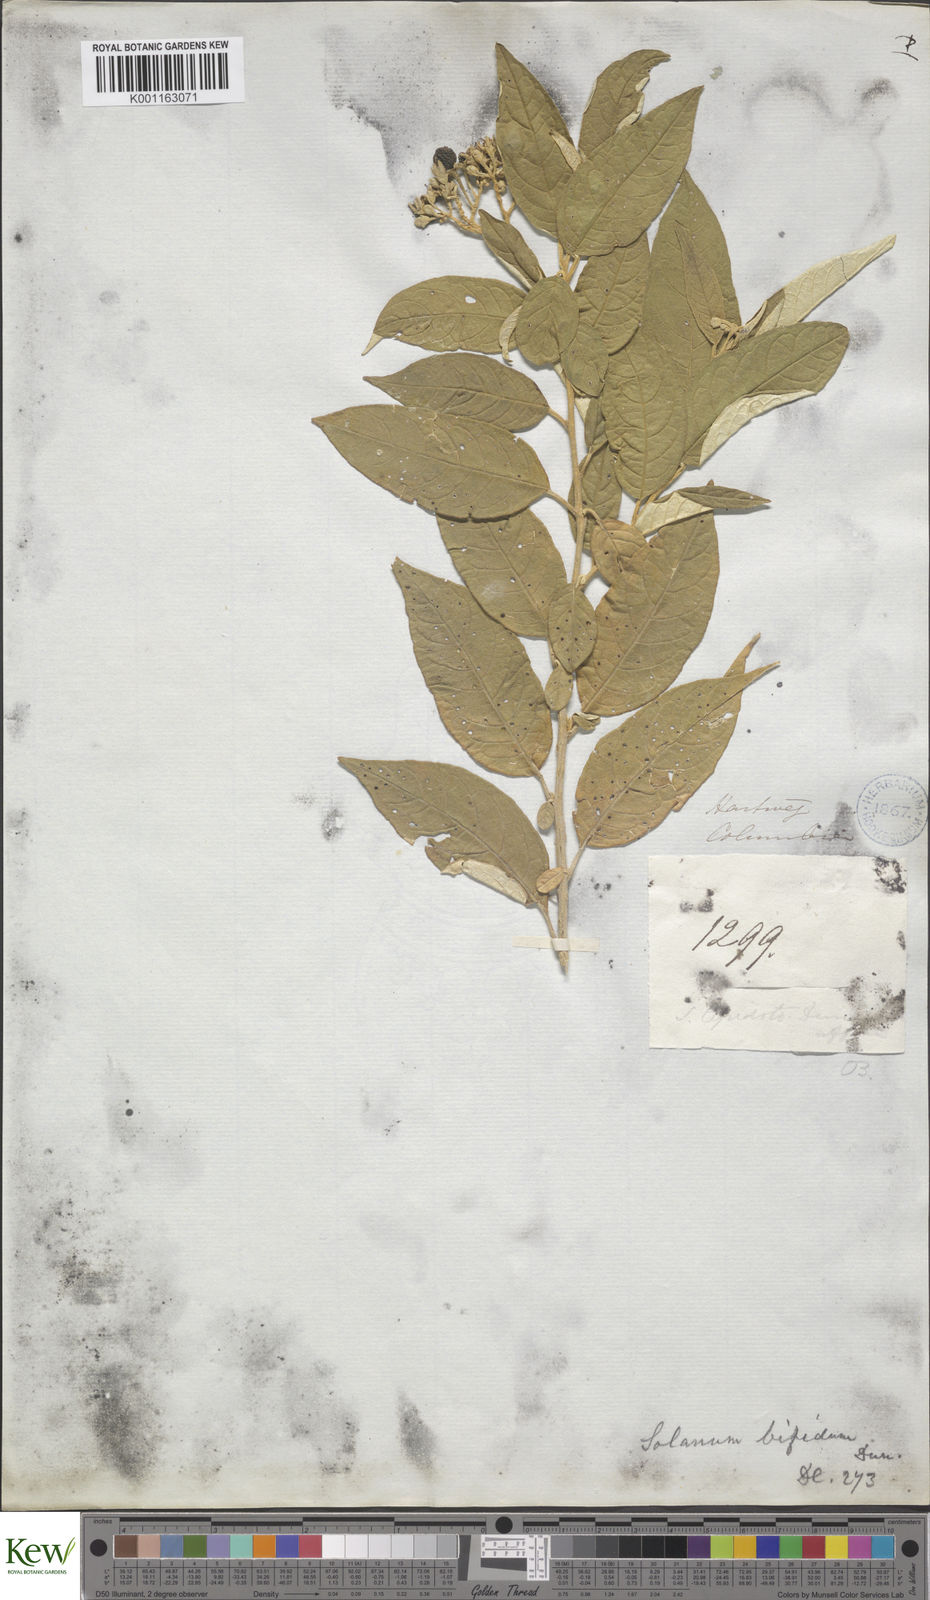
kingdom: Plantae
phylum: Tracheophyta
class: Magnoliopsida
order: Solanales
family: Solanaceae
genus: Solanum
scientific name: Solanum argenteum
